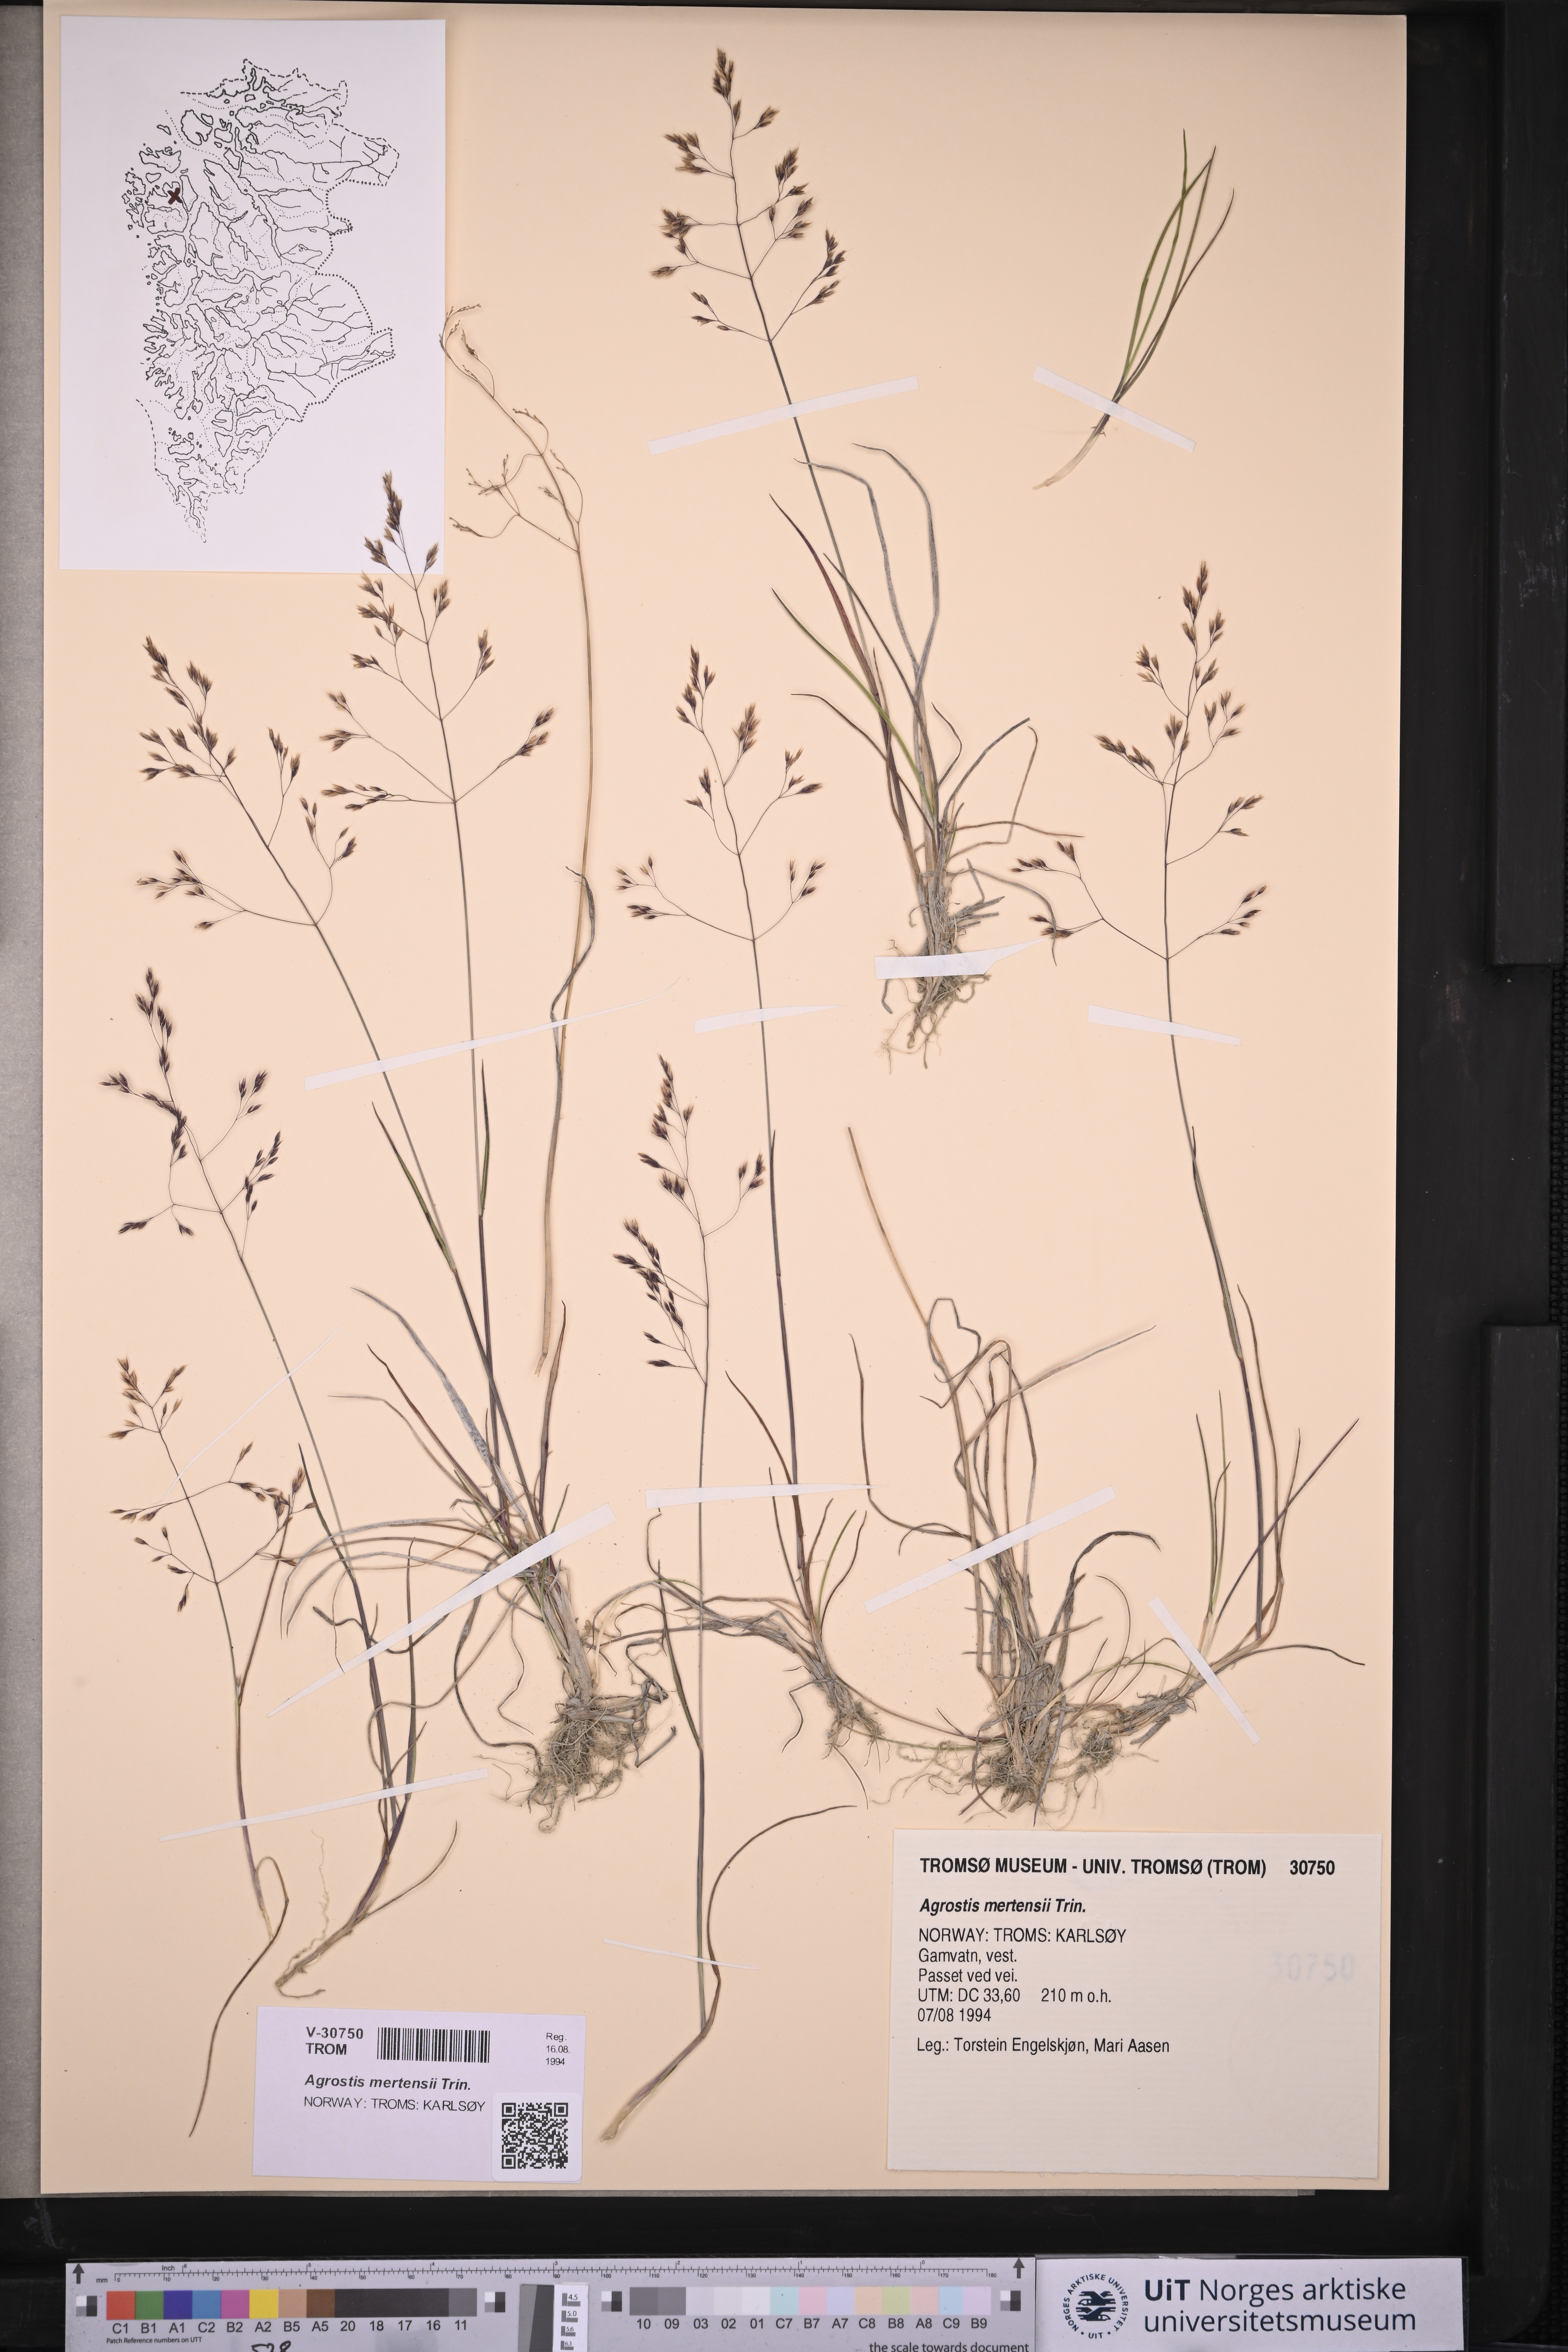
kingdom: Plantae
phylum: Tracheophyta
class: Liliopsida
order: Poales
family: Poaceae
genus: Agrostis
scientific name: Agrostis mertensii
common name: Northern bent
